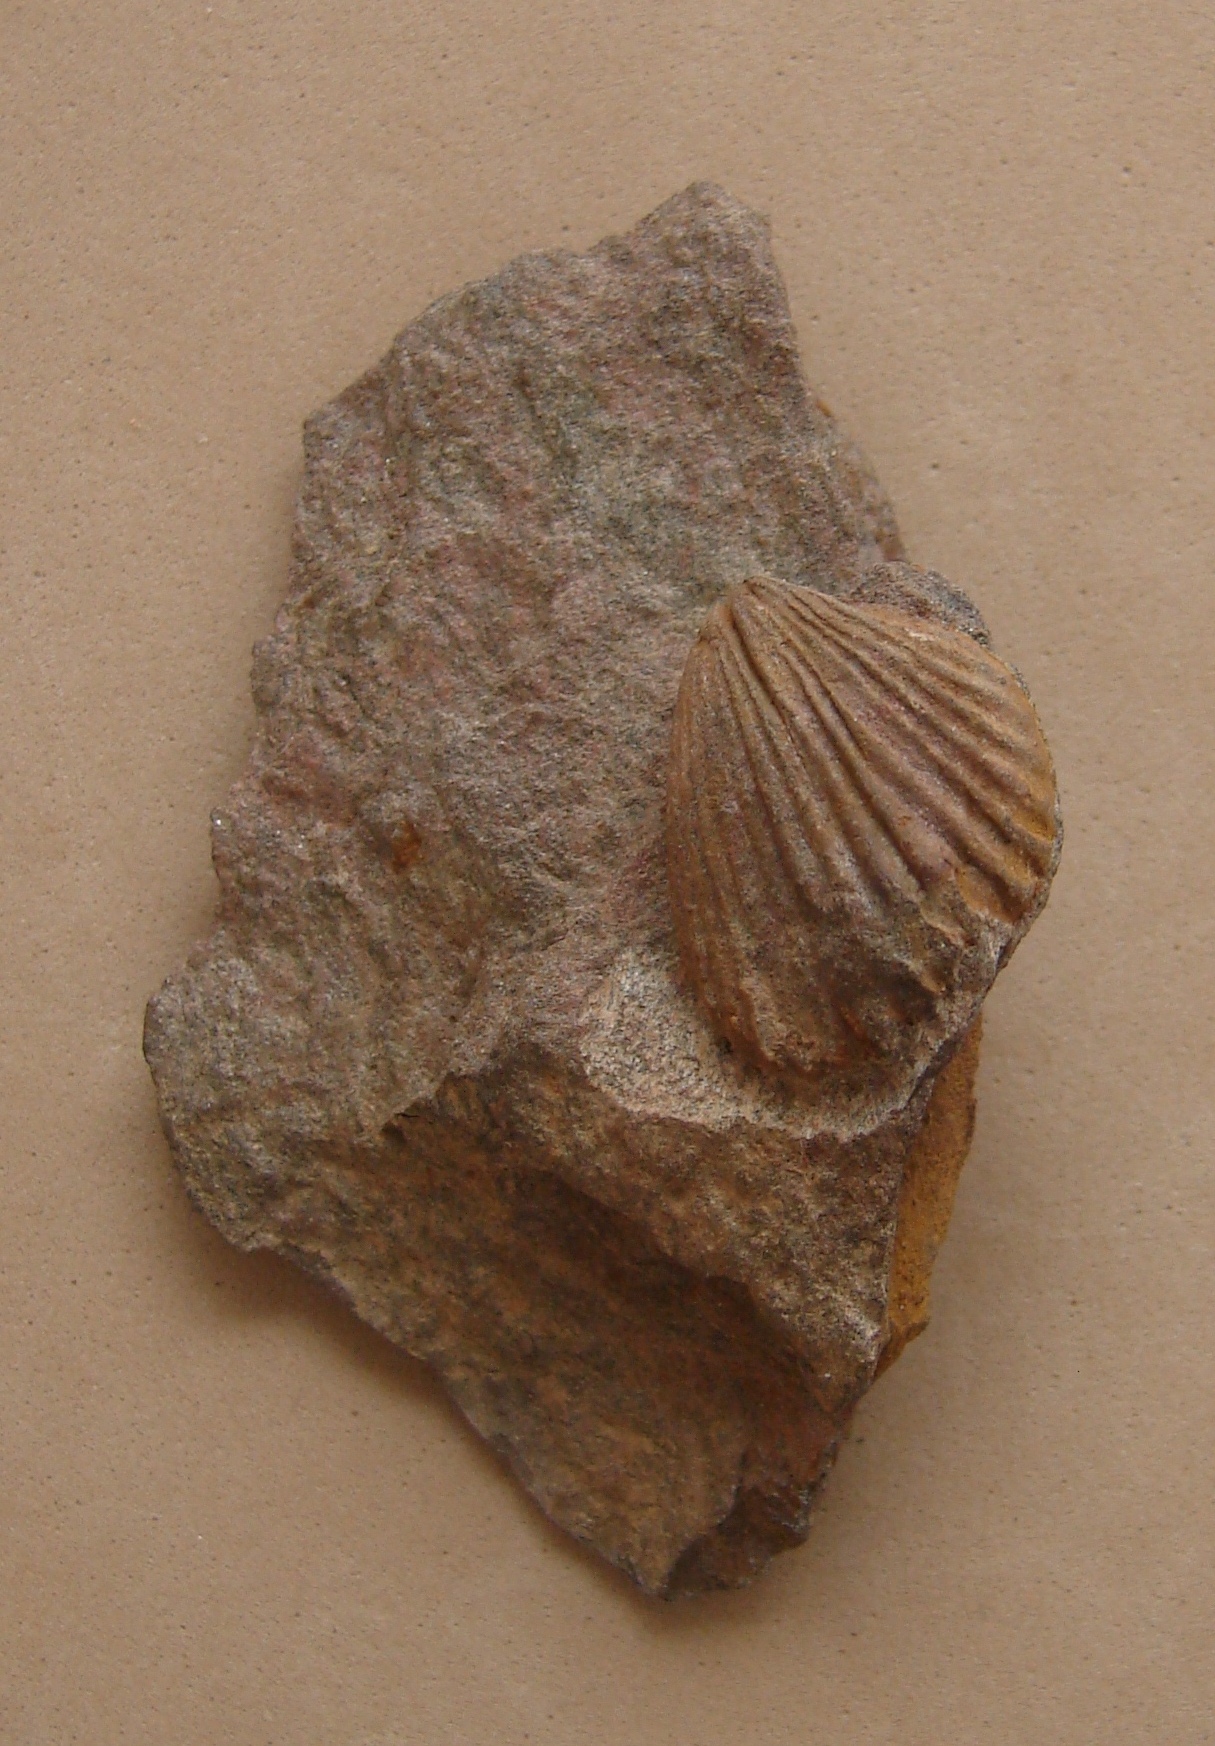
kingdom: Animalia
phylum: Brachiopoda
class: Rhynchonellata
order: Rhynchonellida
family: Trigonirhynchiidae
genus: Oligoptycherhynchus
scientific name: Oligoptycherhynchus
